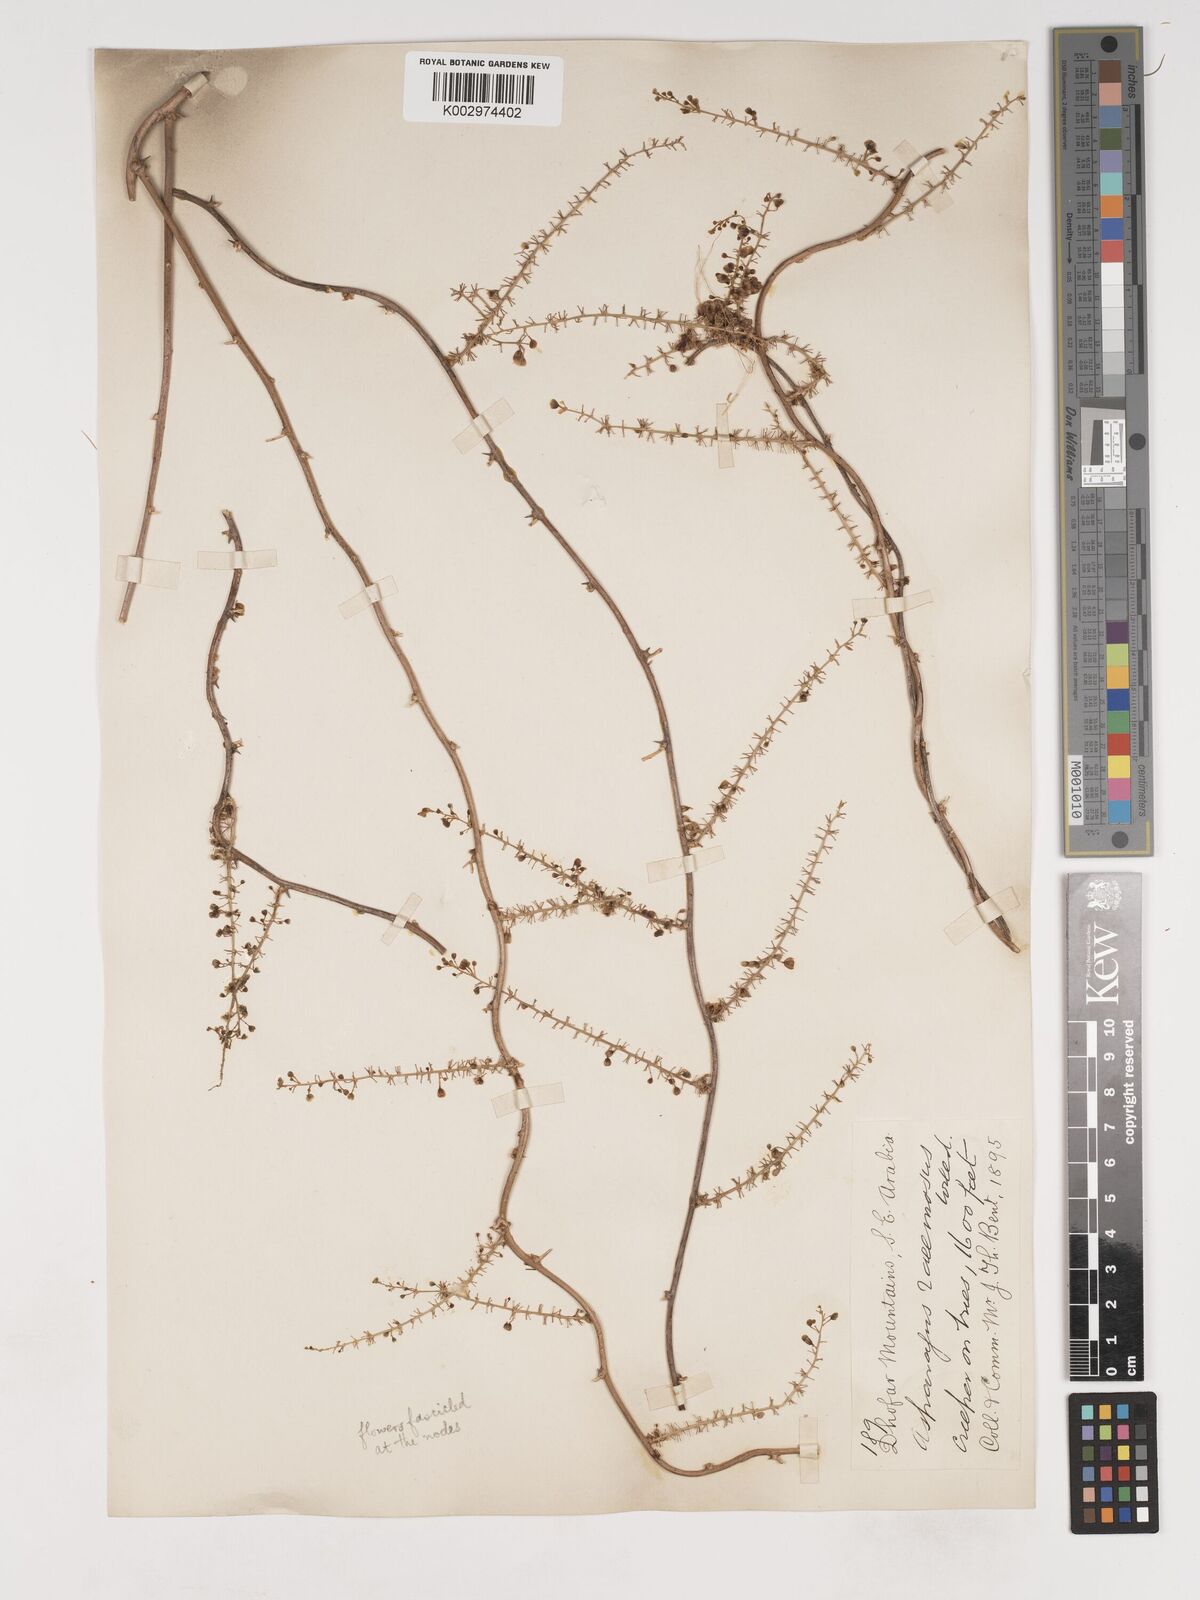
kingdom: Plantae
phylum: Tracheophyta
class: Liliopsida
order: Asparagales
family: Asparagaceae
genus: Asparagus
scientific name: Asparagus racemosus
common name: Asparagus-fern
